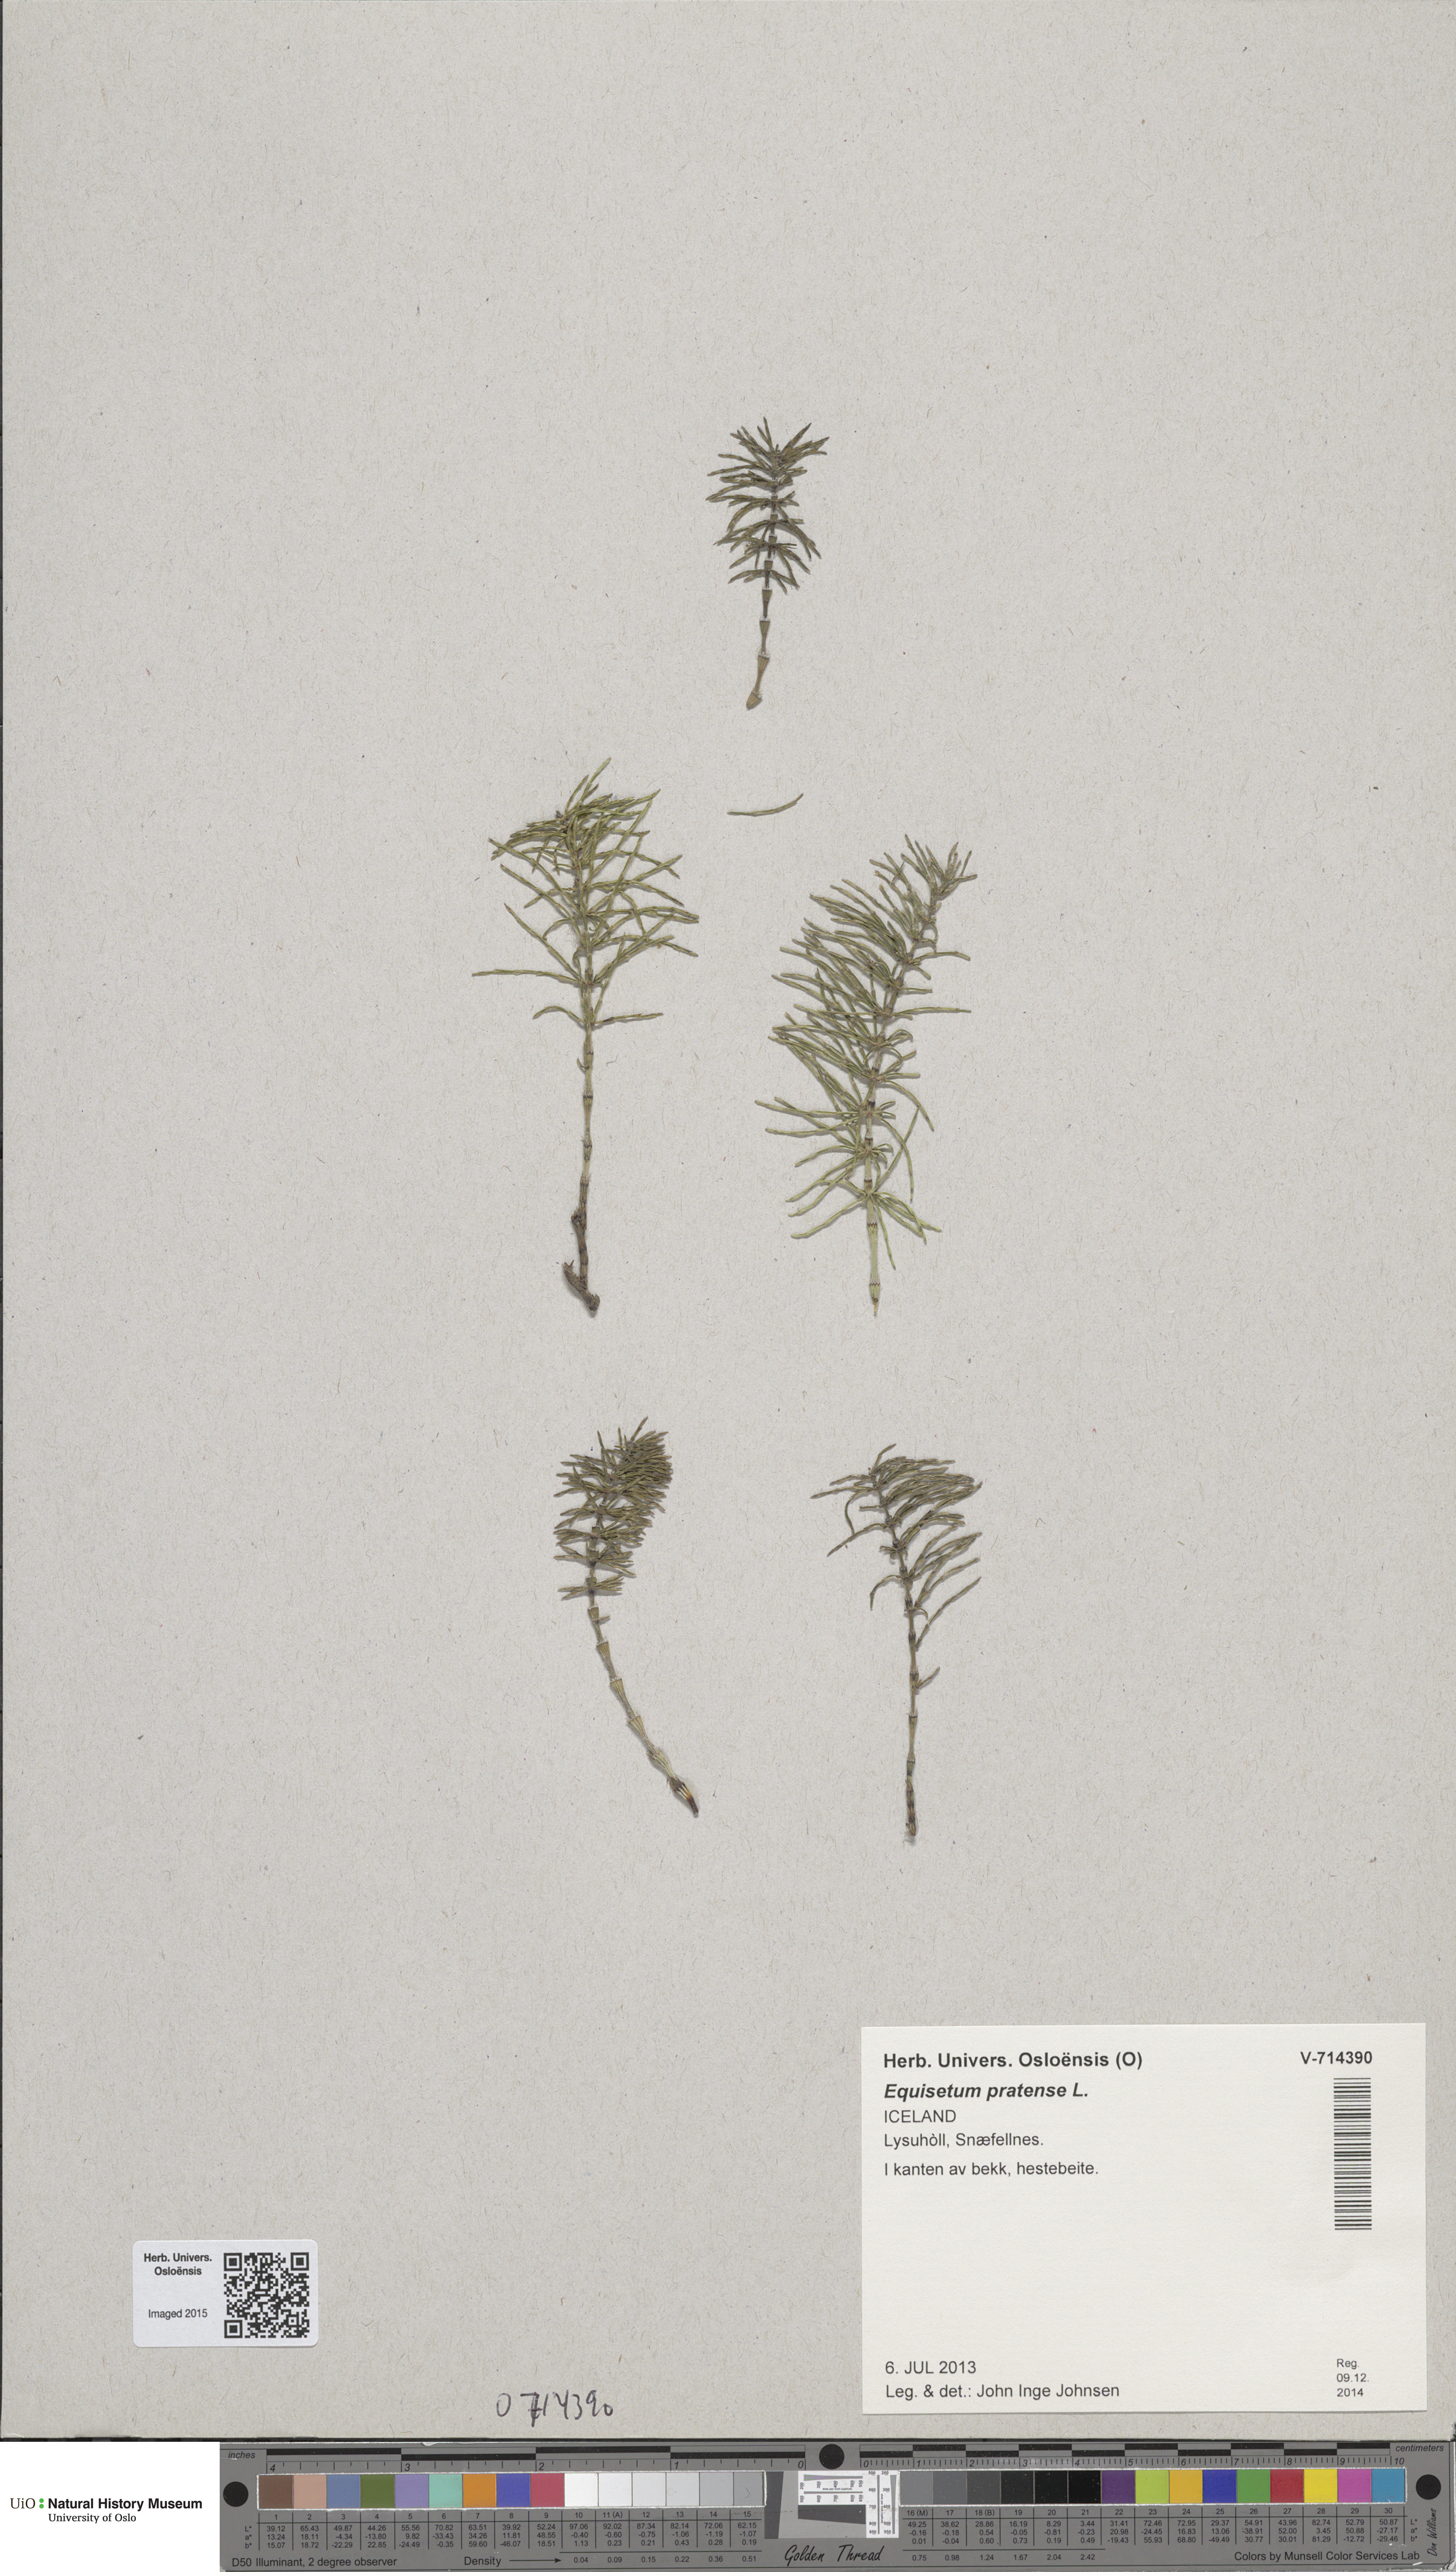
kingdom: Plantae
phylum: Tracheophyta
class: Polypodiopsida
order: Equisetales
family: Equisetaceae
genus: Equisetum
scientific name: Equisetum pratense
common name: Meadow horsetail
